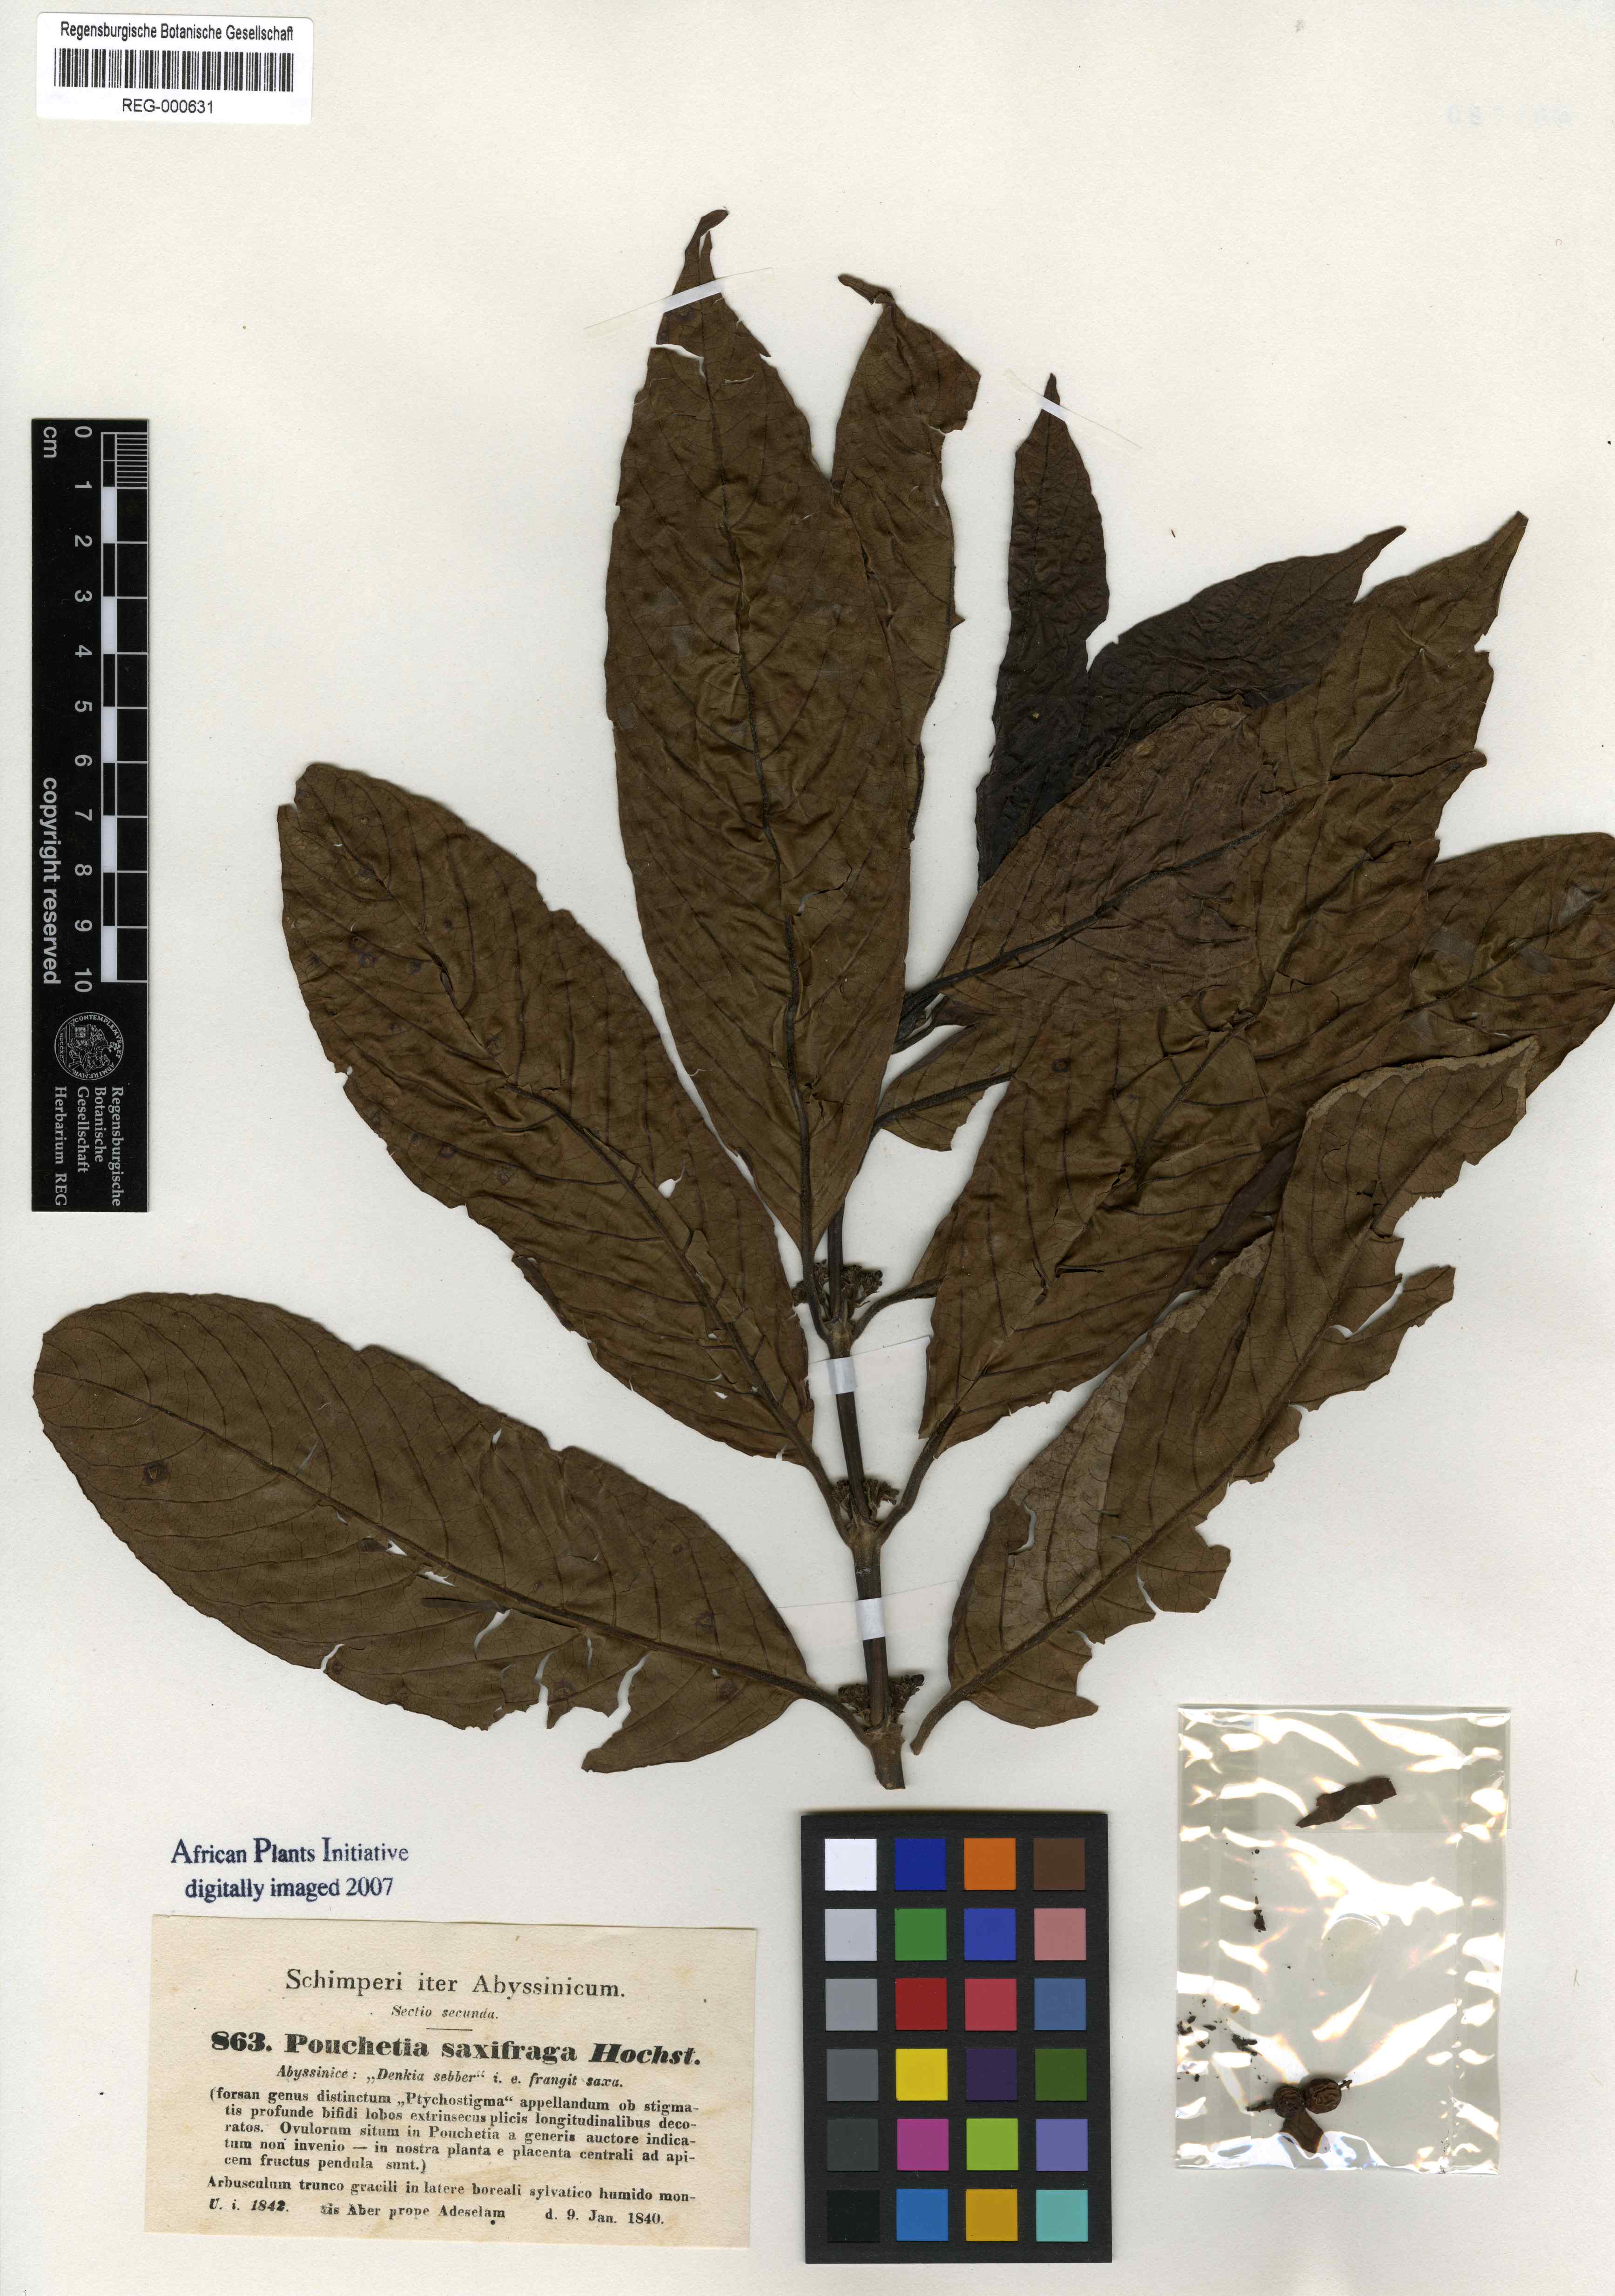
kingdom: Plantae
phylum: Tracheophyta
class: Magnoliopsida
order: Gentianales
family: Rubiaceae
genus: Galiniera
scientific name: Galiniera saxifraga
